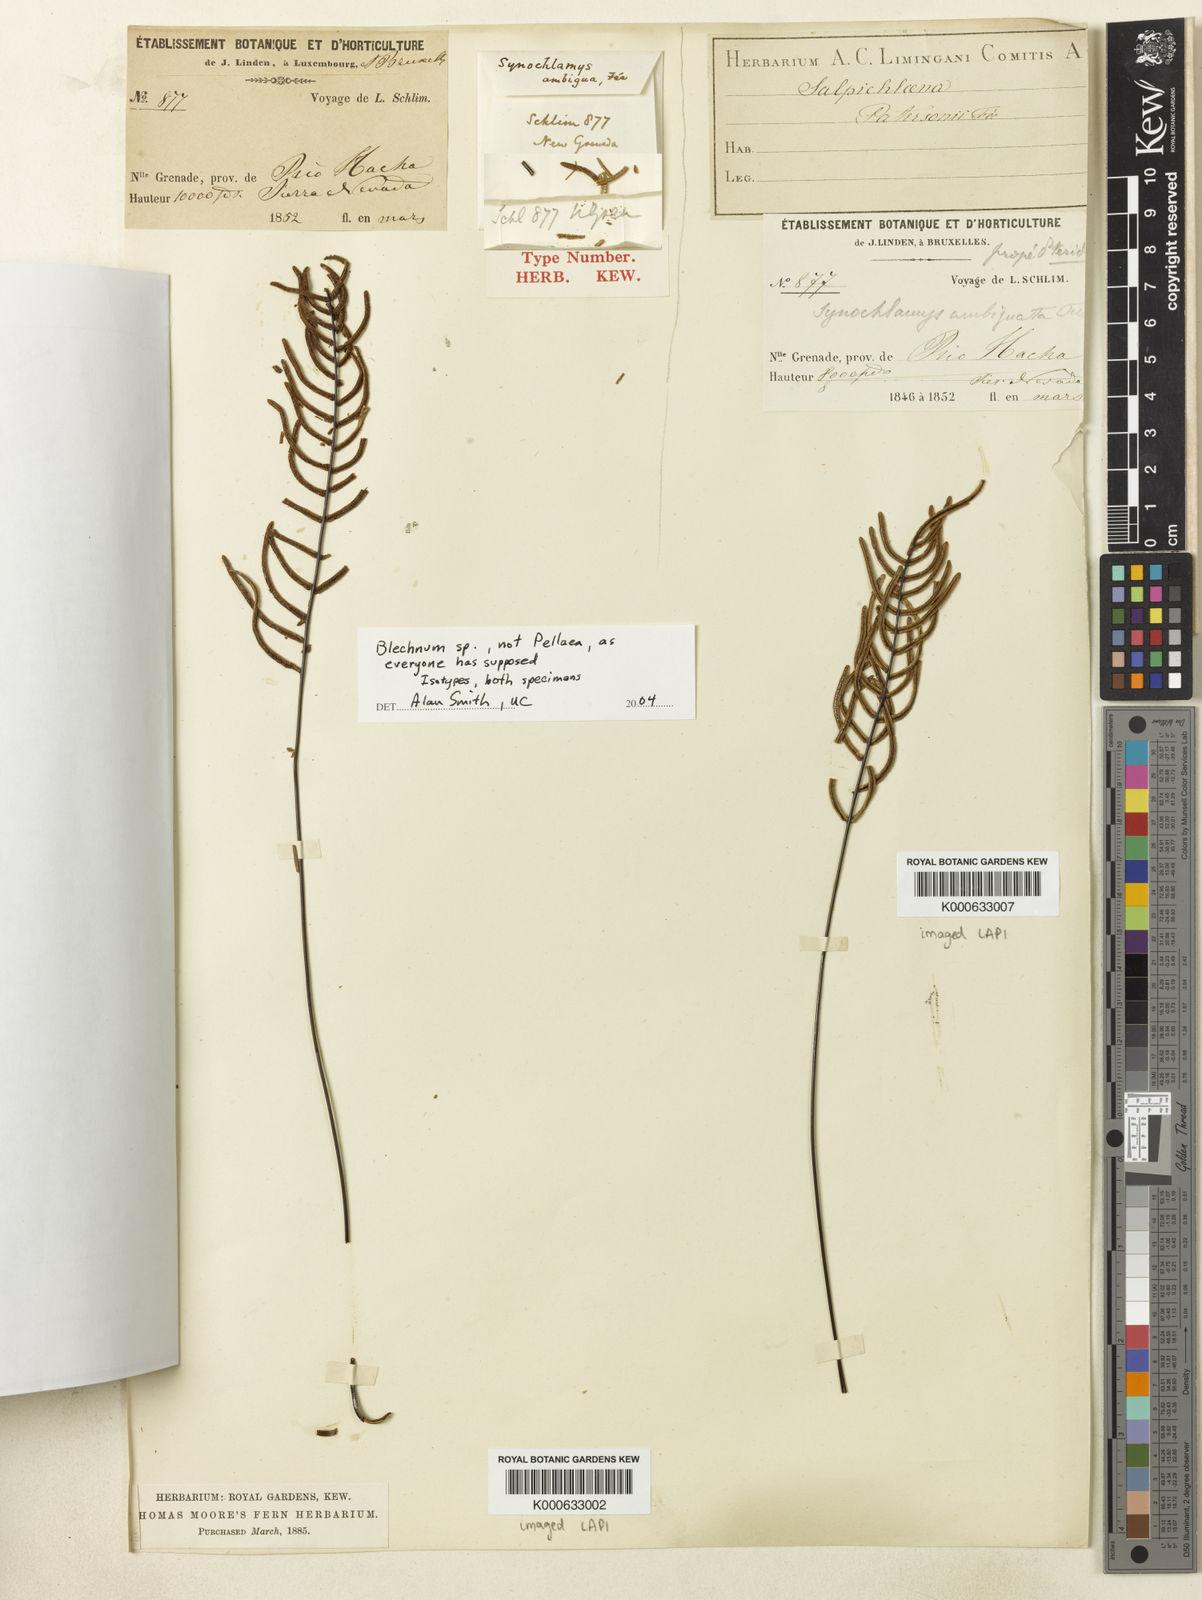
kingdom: Plantae
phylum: Tracheophyta
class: Polypodiopsida
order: Polypodiales
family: Pteridaceae
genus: Pellaea
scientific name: Pellaea
